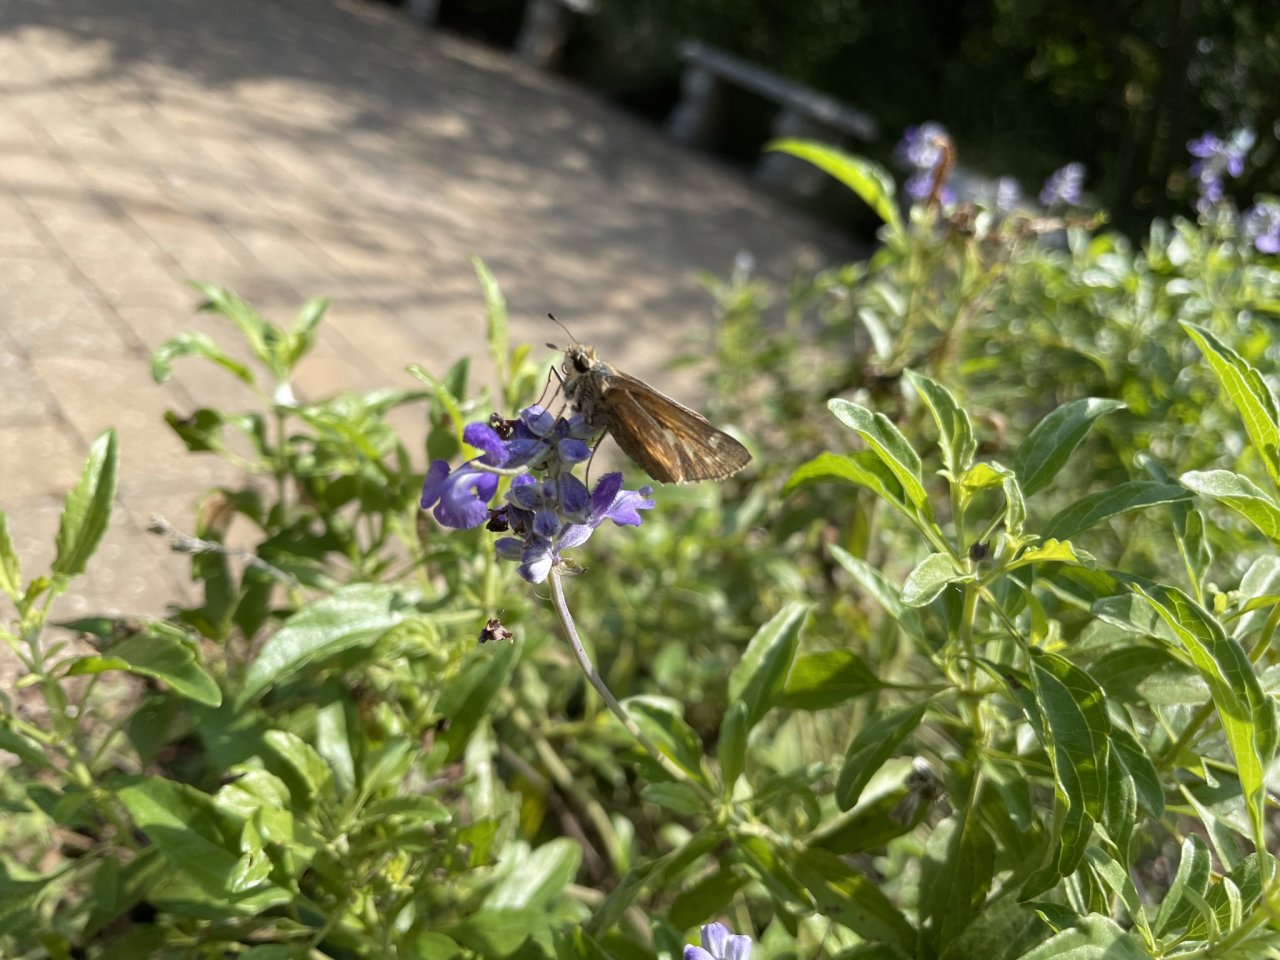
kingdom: Animalia
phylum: Arthropoda
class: Insecta
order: Lepidoptera
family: Hesperiidae
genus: Autochton
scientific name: Autochton
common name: Southern Cloudywing
